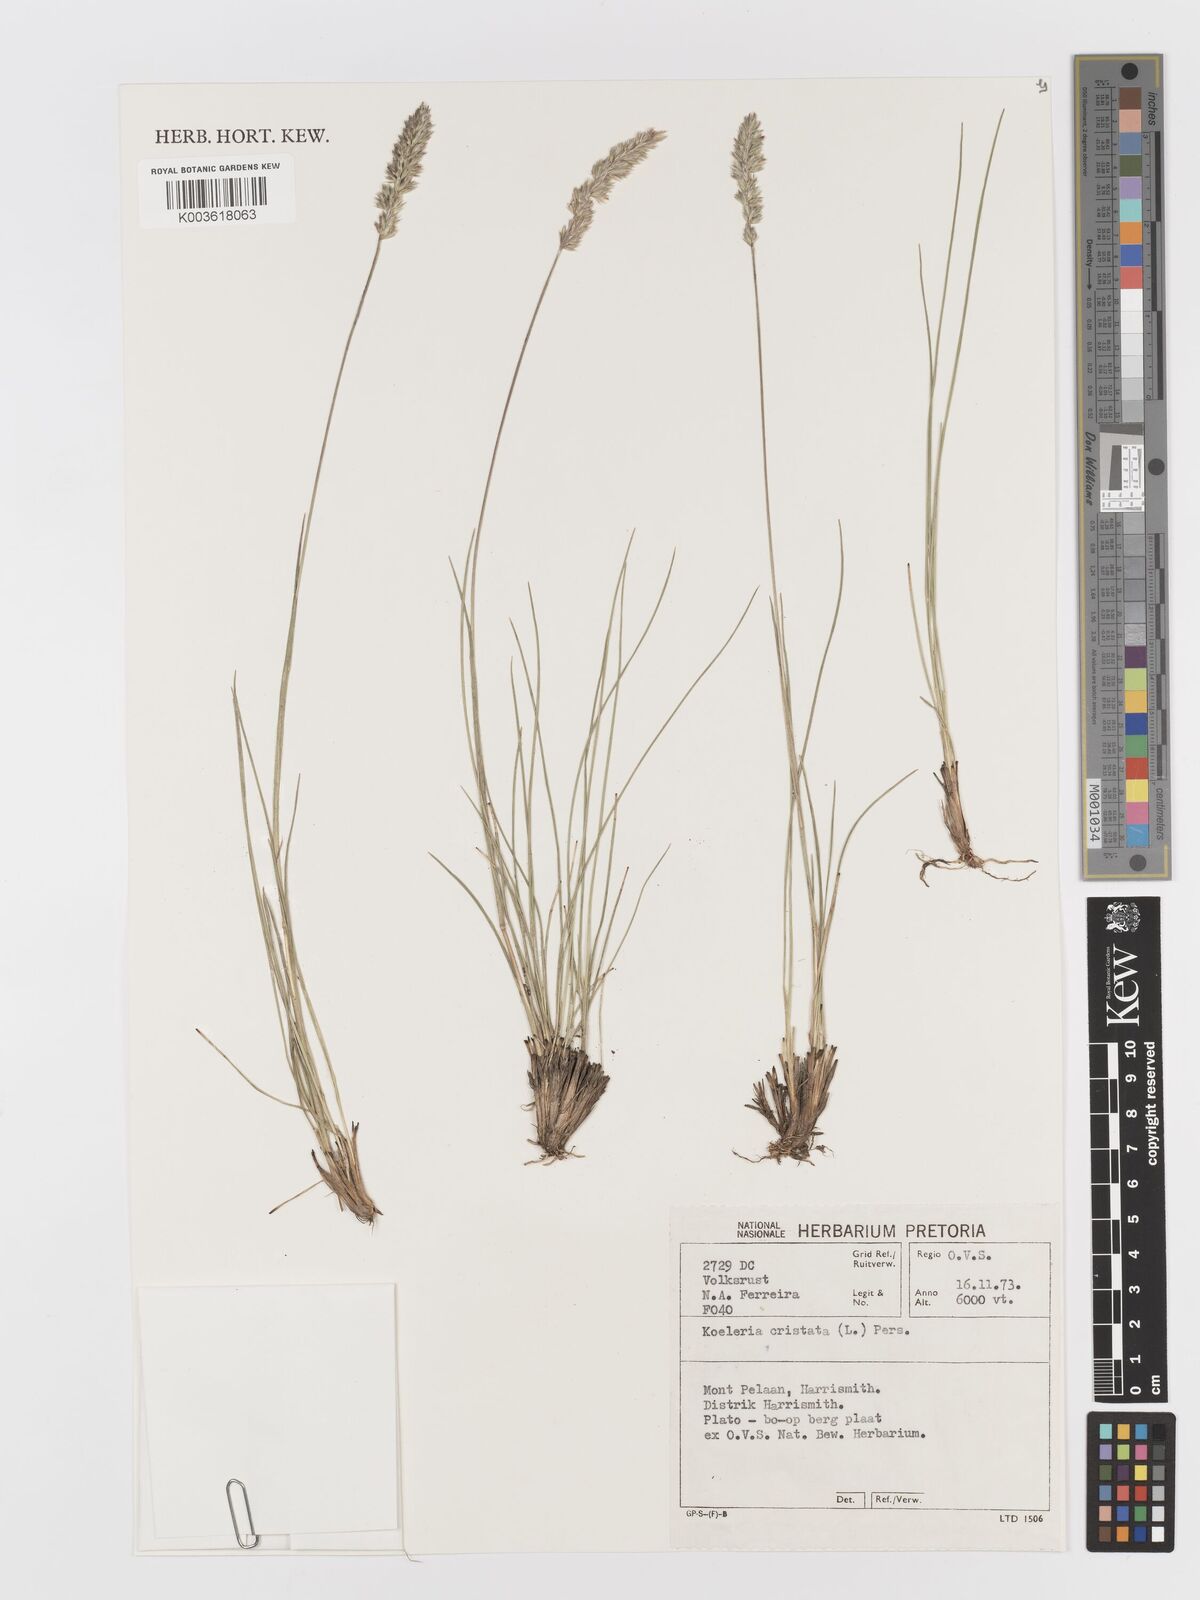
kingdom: Plantae
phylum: Tracheophyta
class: Liliopsida
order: Poales
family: Poaceae
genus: Koeleria
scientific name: Koeleria capensis
